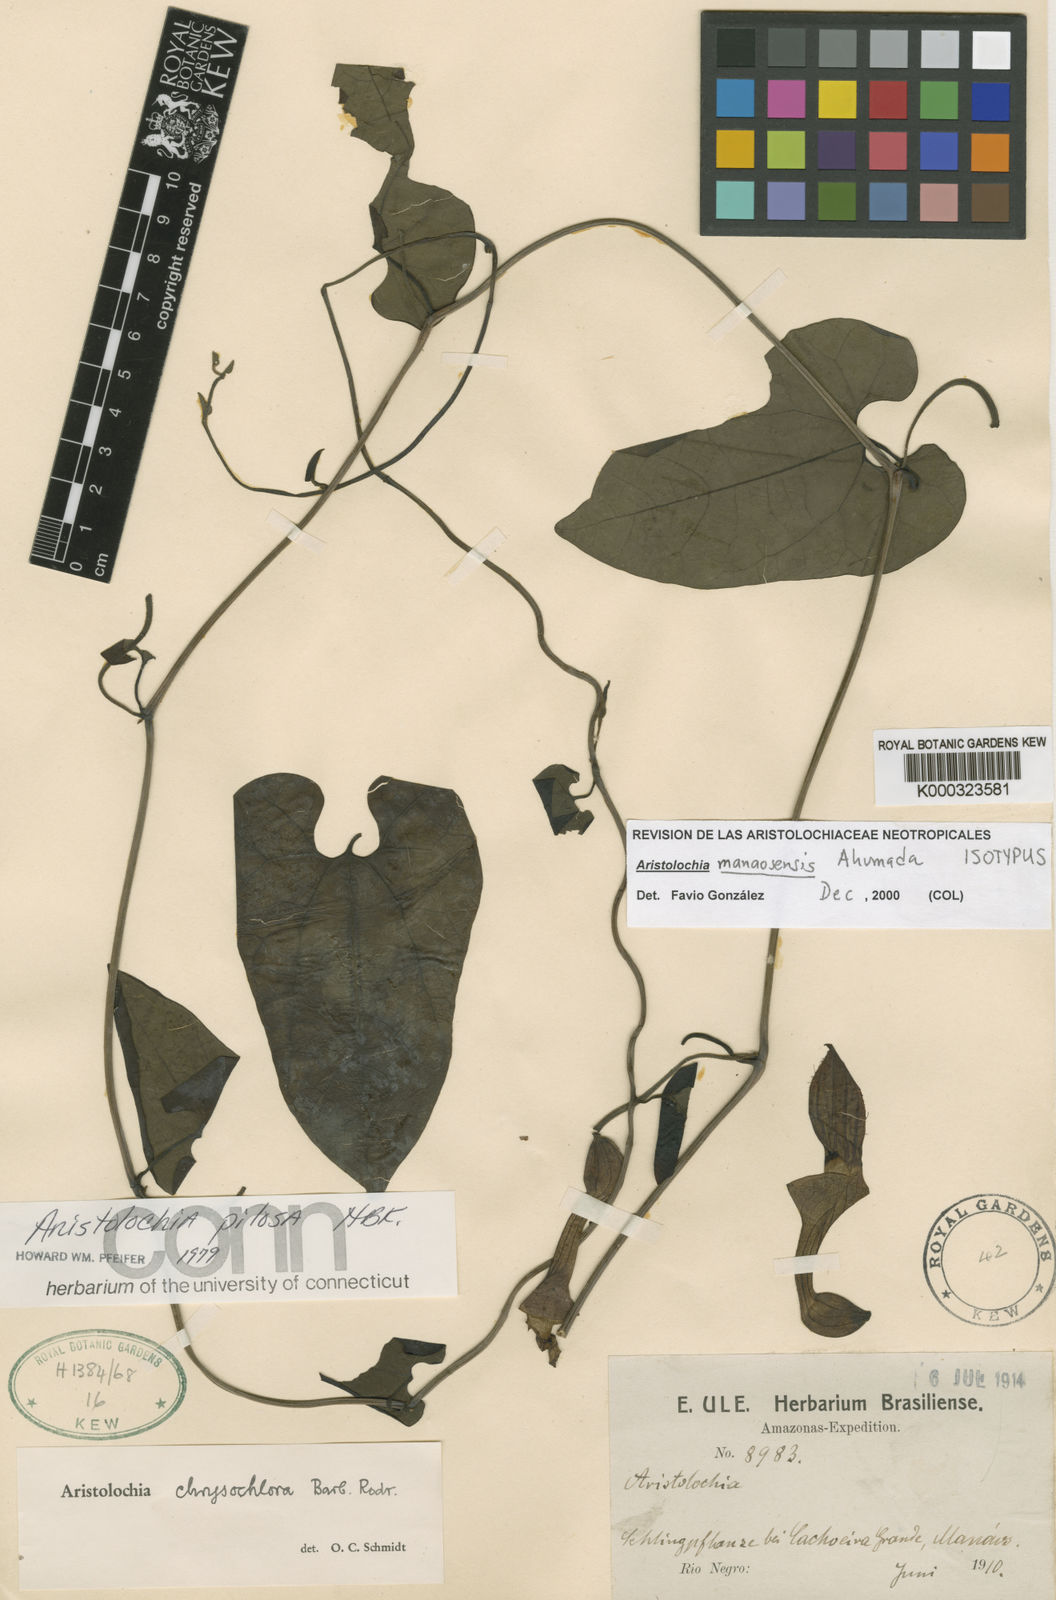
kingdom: Plantae
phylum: Tracheophyta
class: Magnoliopsida
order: Piperales
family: Aristolochiaceae
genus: Aristolochia
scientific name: Aristolochia manaosensis
